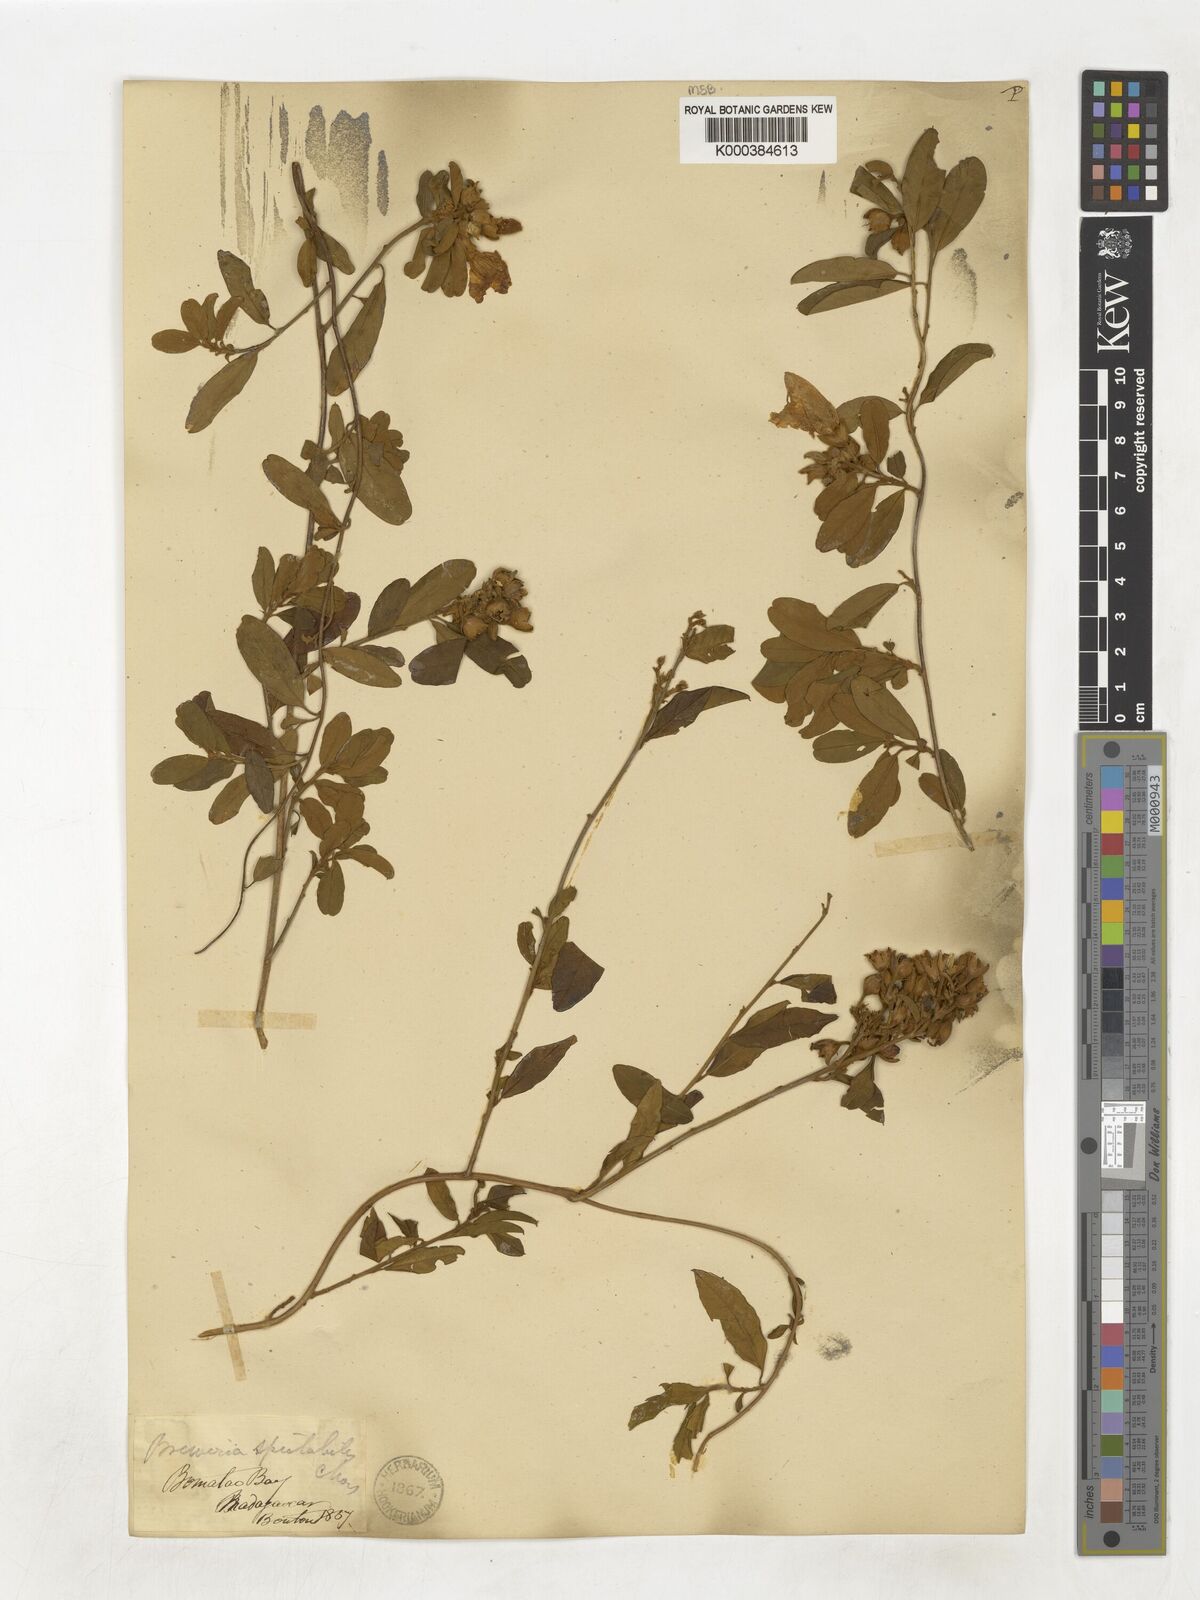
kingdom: Plantae
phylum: Tracheophyta
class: Magnoliopsida
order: Solanales
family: Convolvulaceae
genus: Bonamia
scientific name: Bonamia spectabilis
